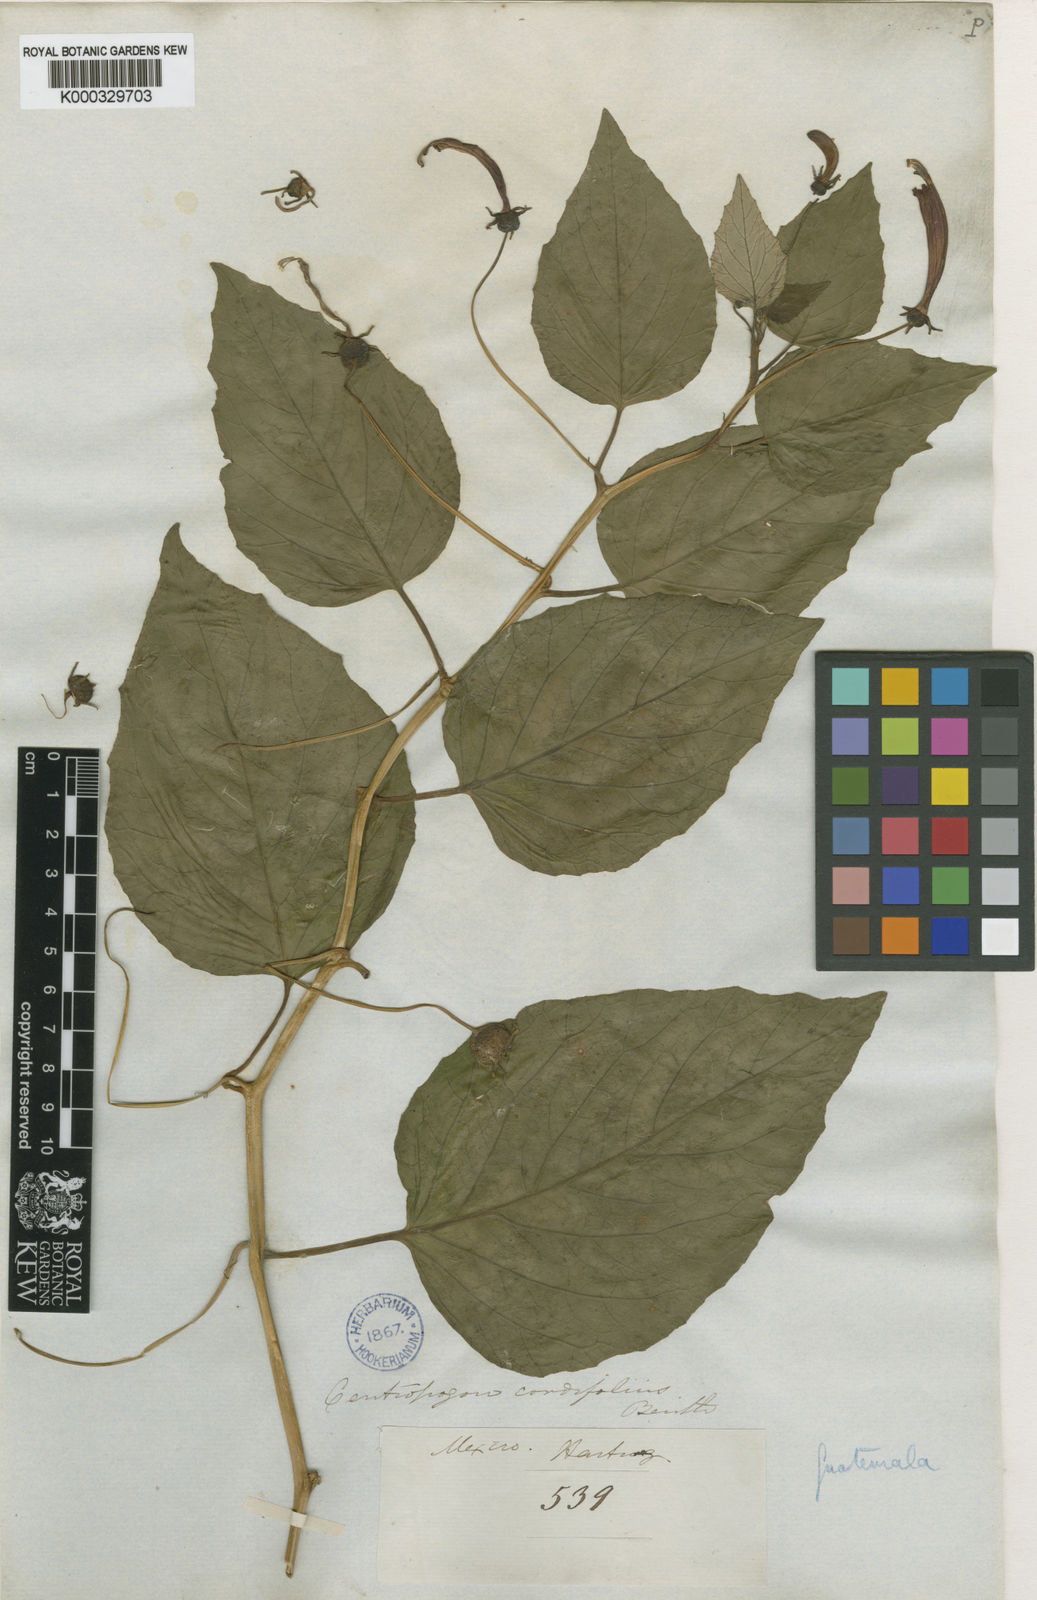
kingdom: Plantae
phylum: Tracheophyta
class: Magnoliopsida
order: Asterales
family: Campanulaceae
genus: Centropogon
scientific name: Centropogon cordifolius
